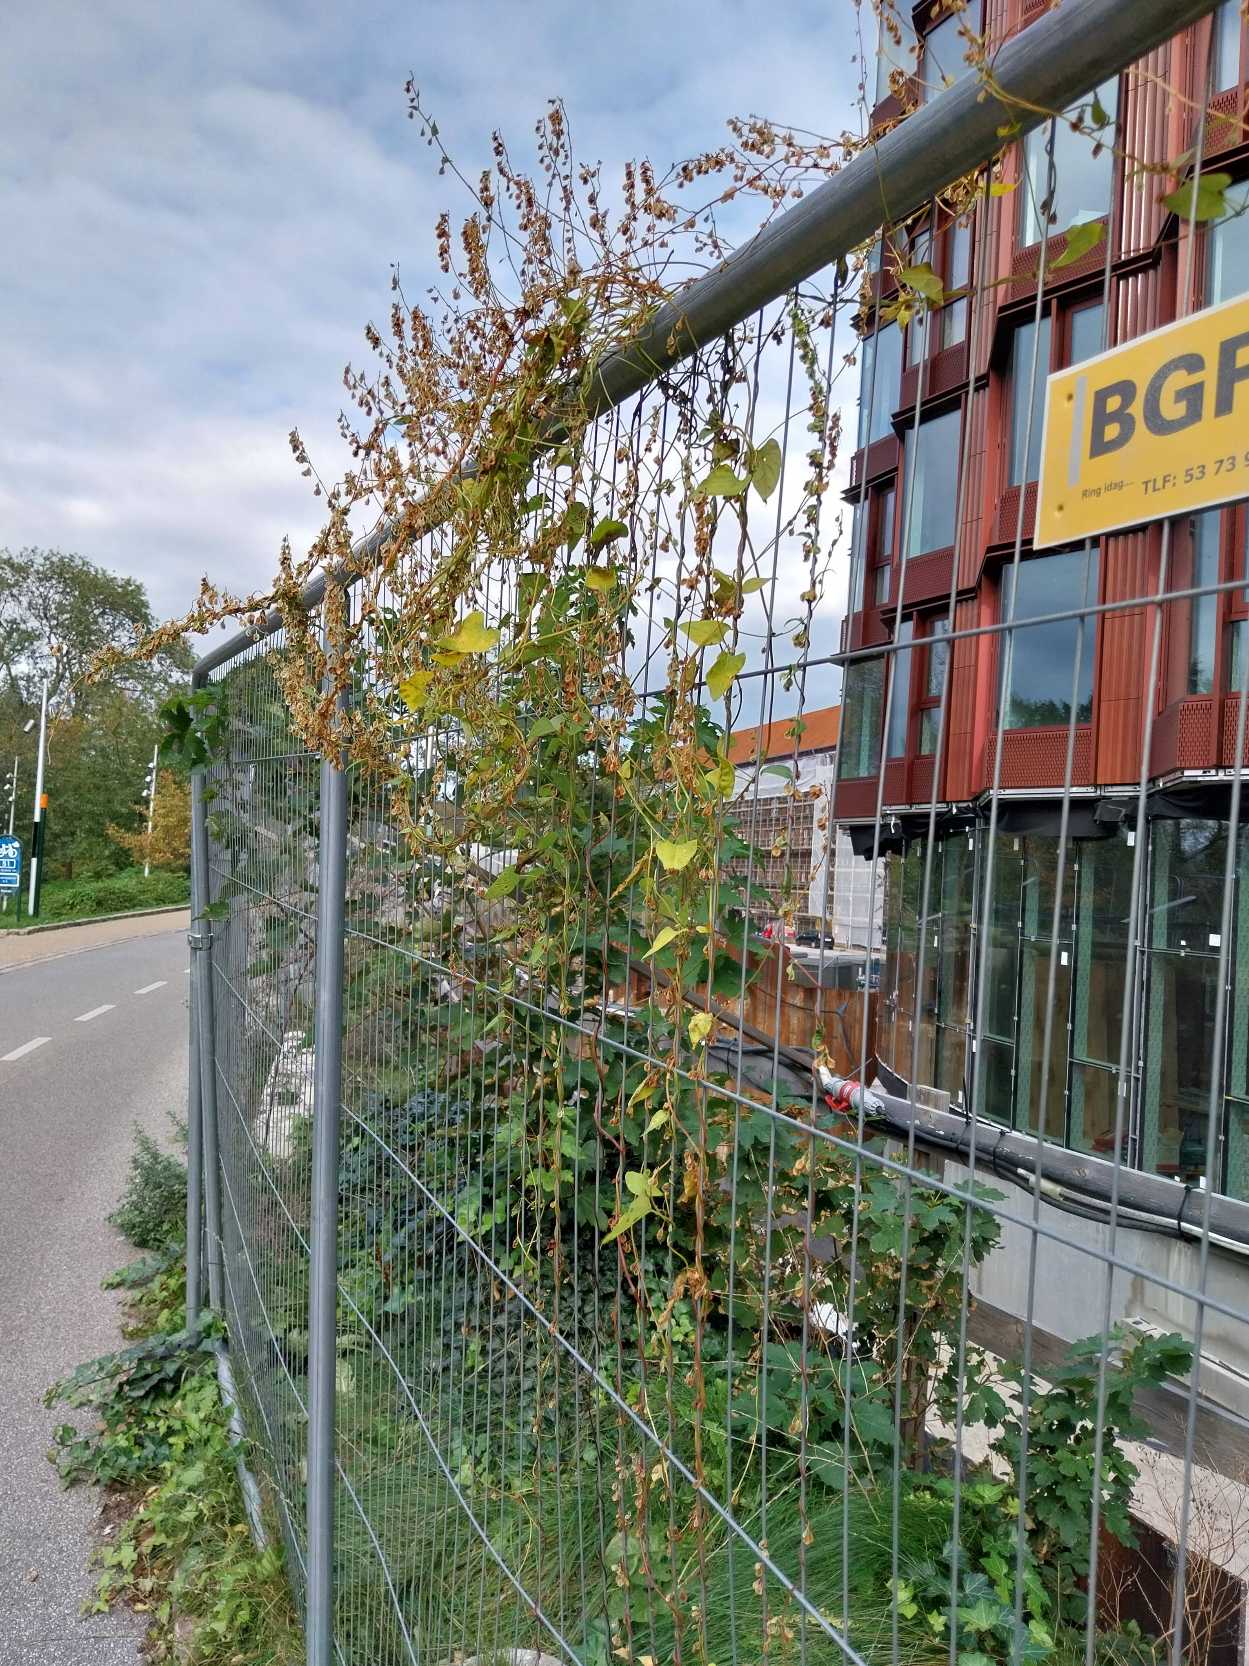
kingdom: Plantae
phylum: Tracheophyta
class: Magnoliopsida
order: Caryophyllales
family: Polygonaceae
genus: Fallopia
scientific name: Fallopia dumetorum
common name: Vinge-pileurt
